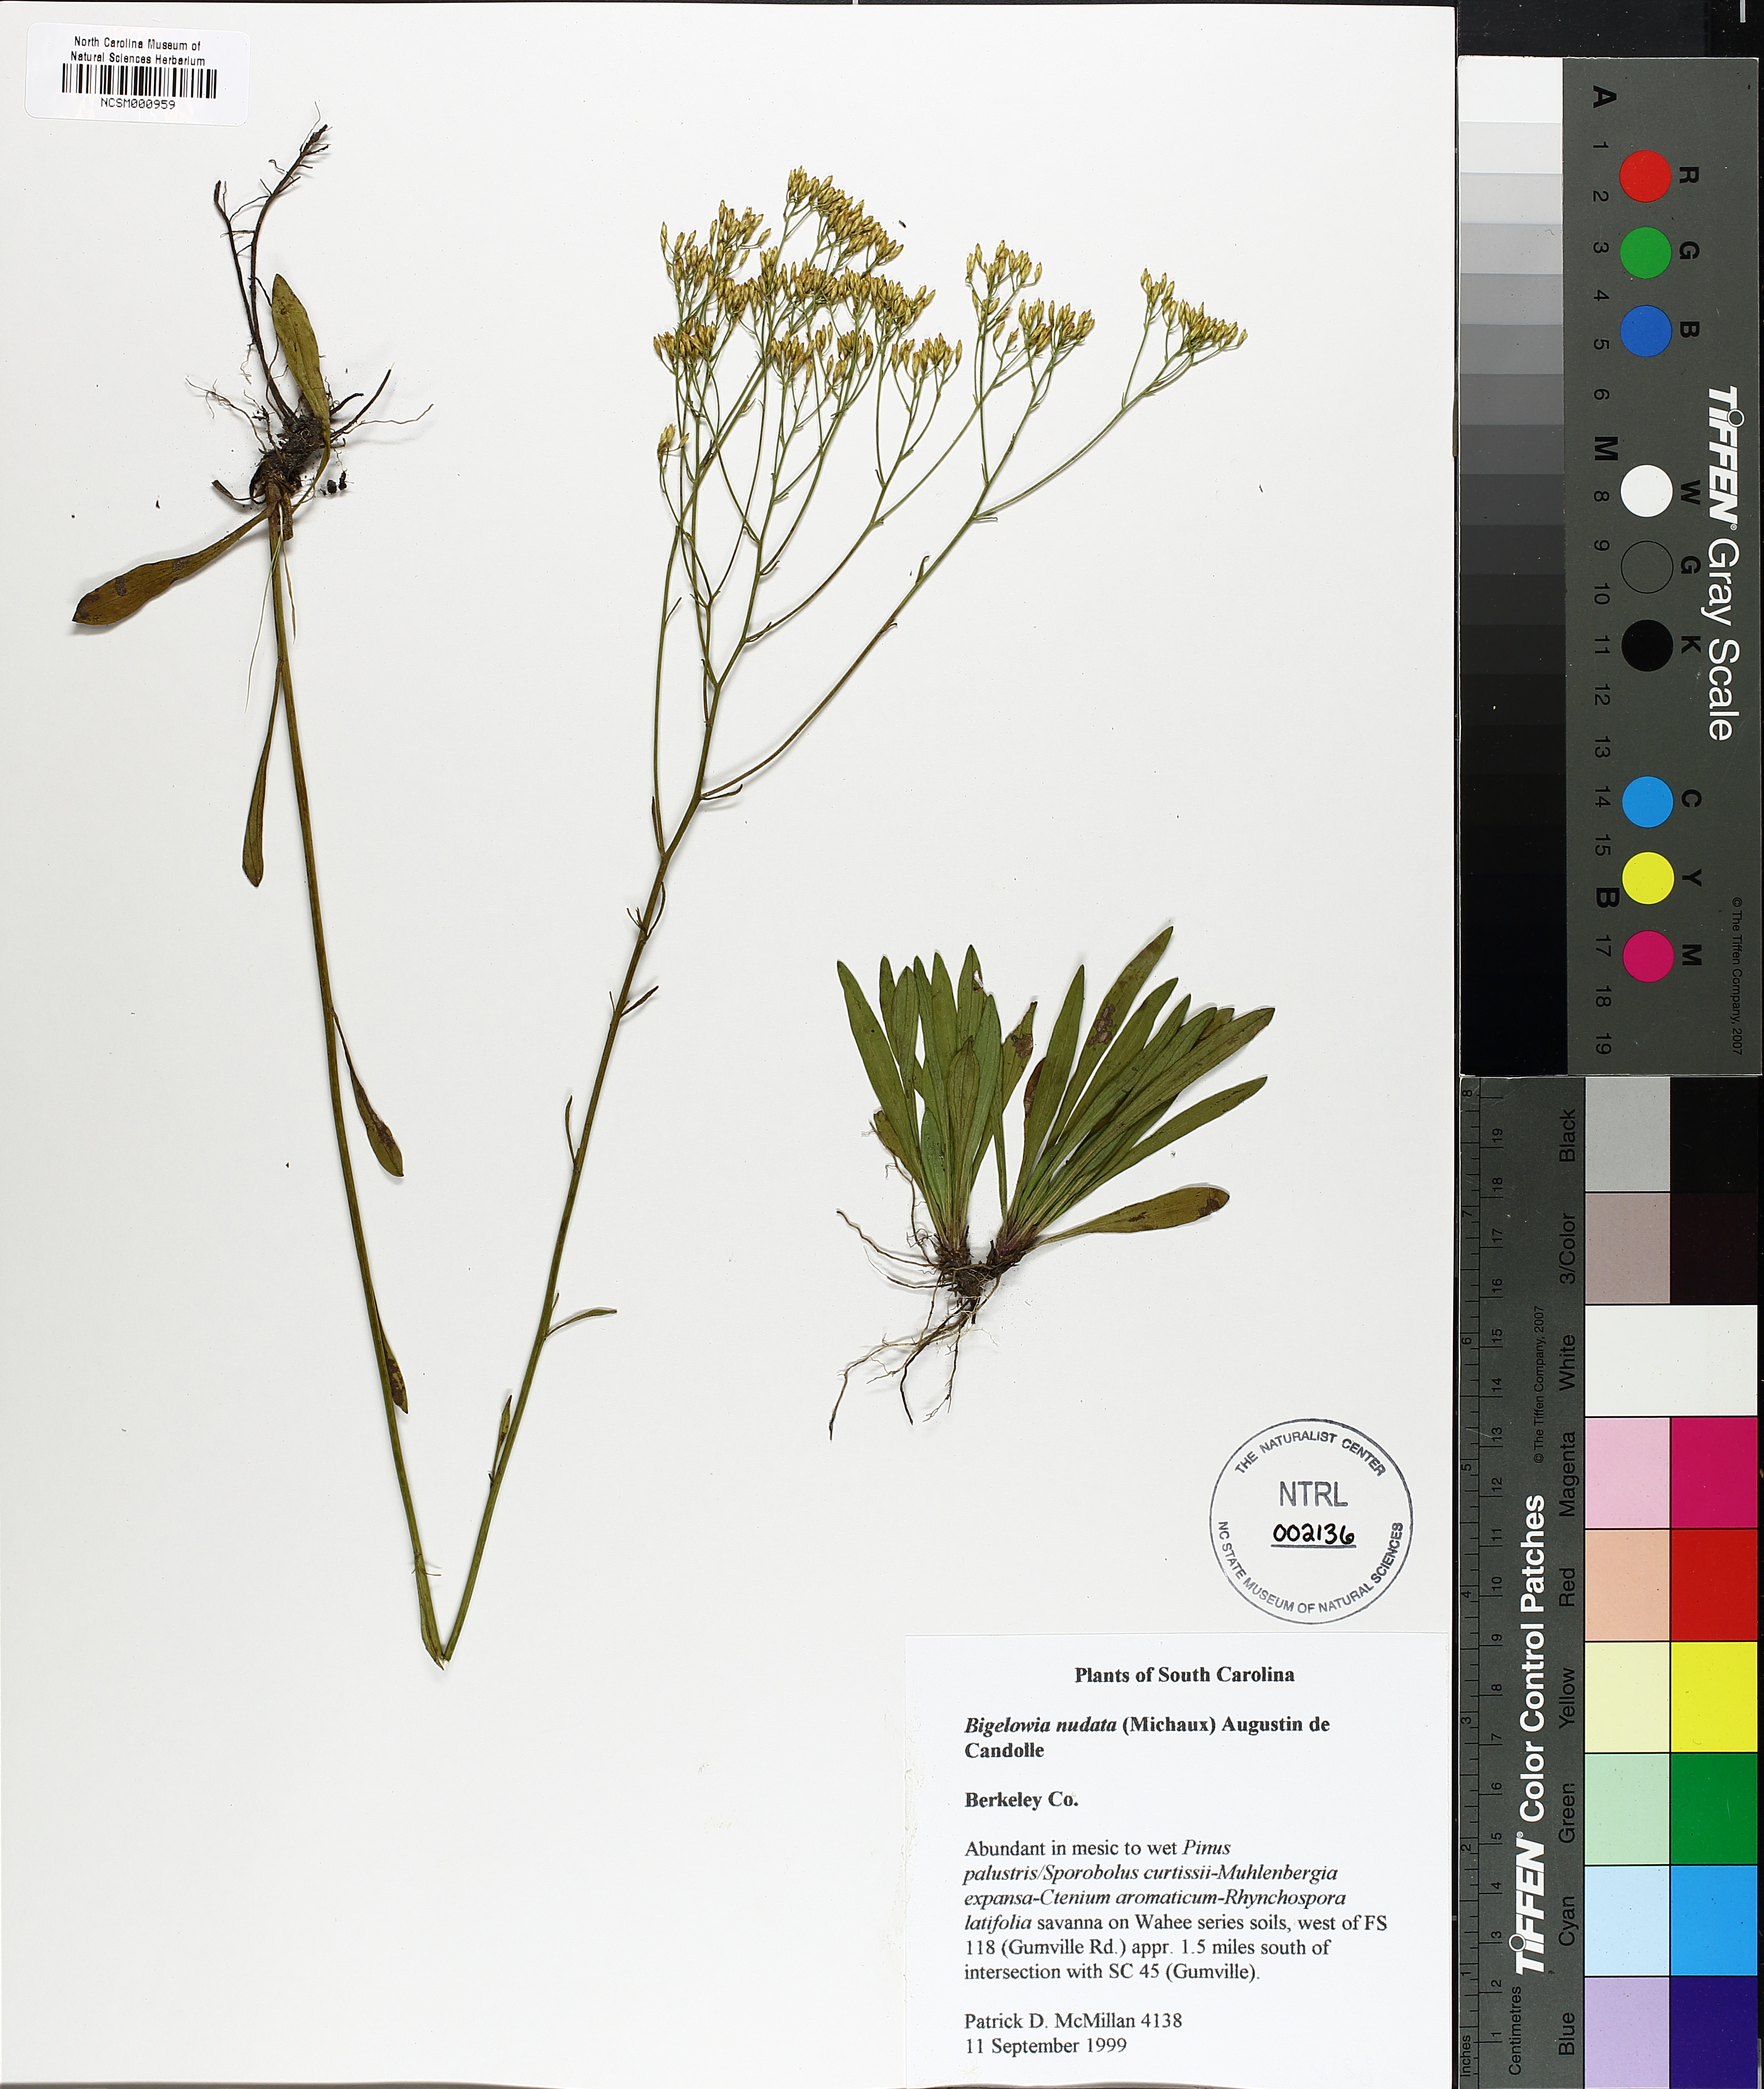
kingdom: Plantae
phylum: Tracheophyta
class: Magnoliopsida
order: Asterales
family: Asteraceae
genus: Bigelowia
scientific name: Bigelowia nudata
